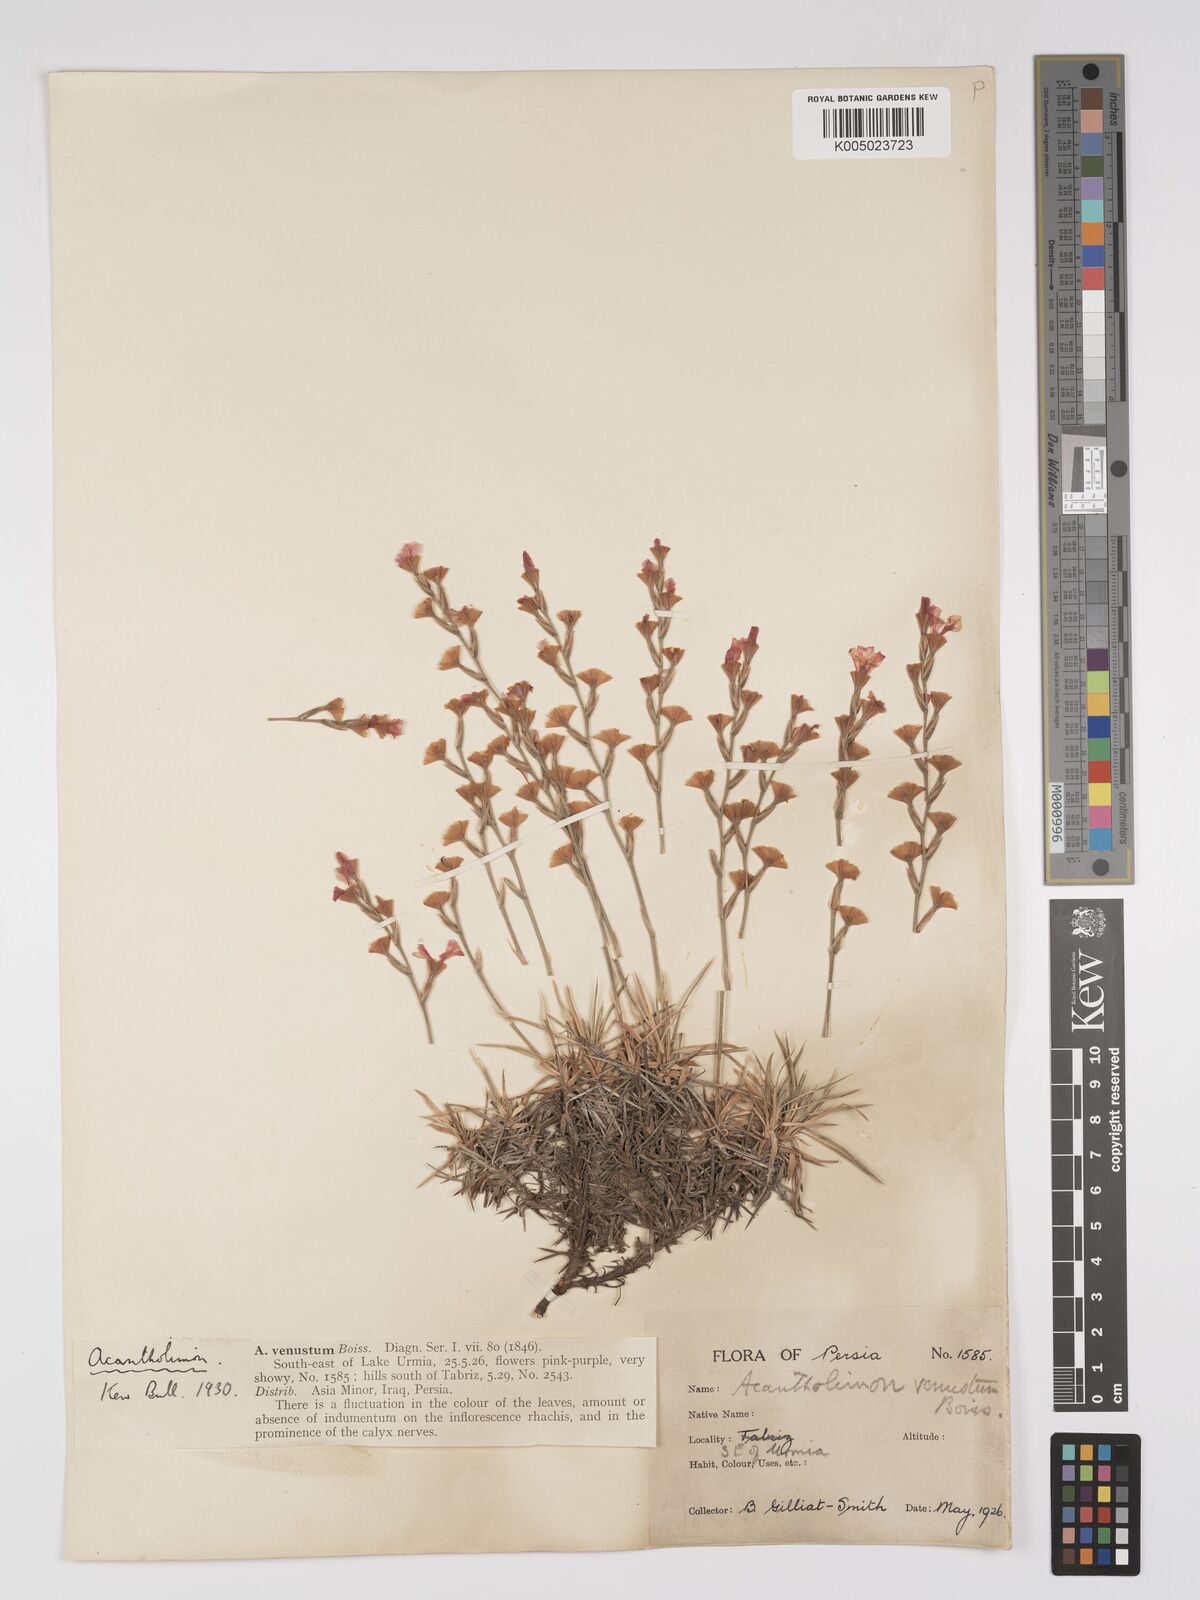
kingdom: Plantae
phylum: Tracheophyta
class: Magnoliopsida
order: Caryophyllales
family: Plumbaginaceae
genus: Acantholimon
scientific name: Acantholimon venustum
